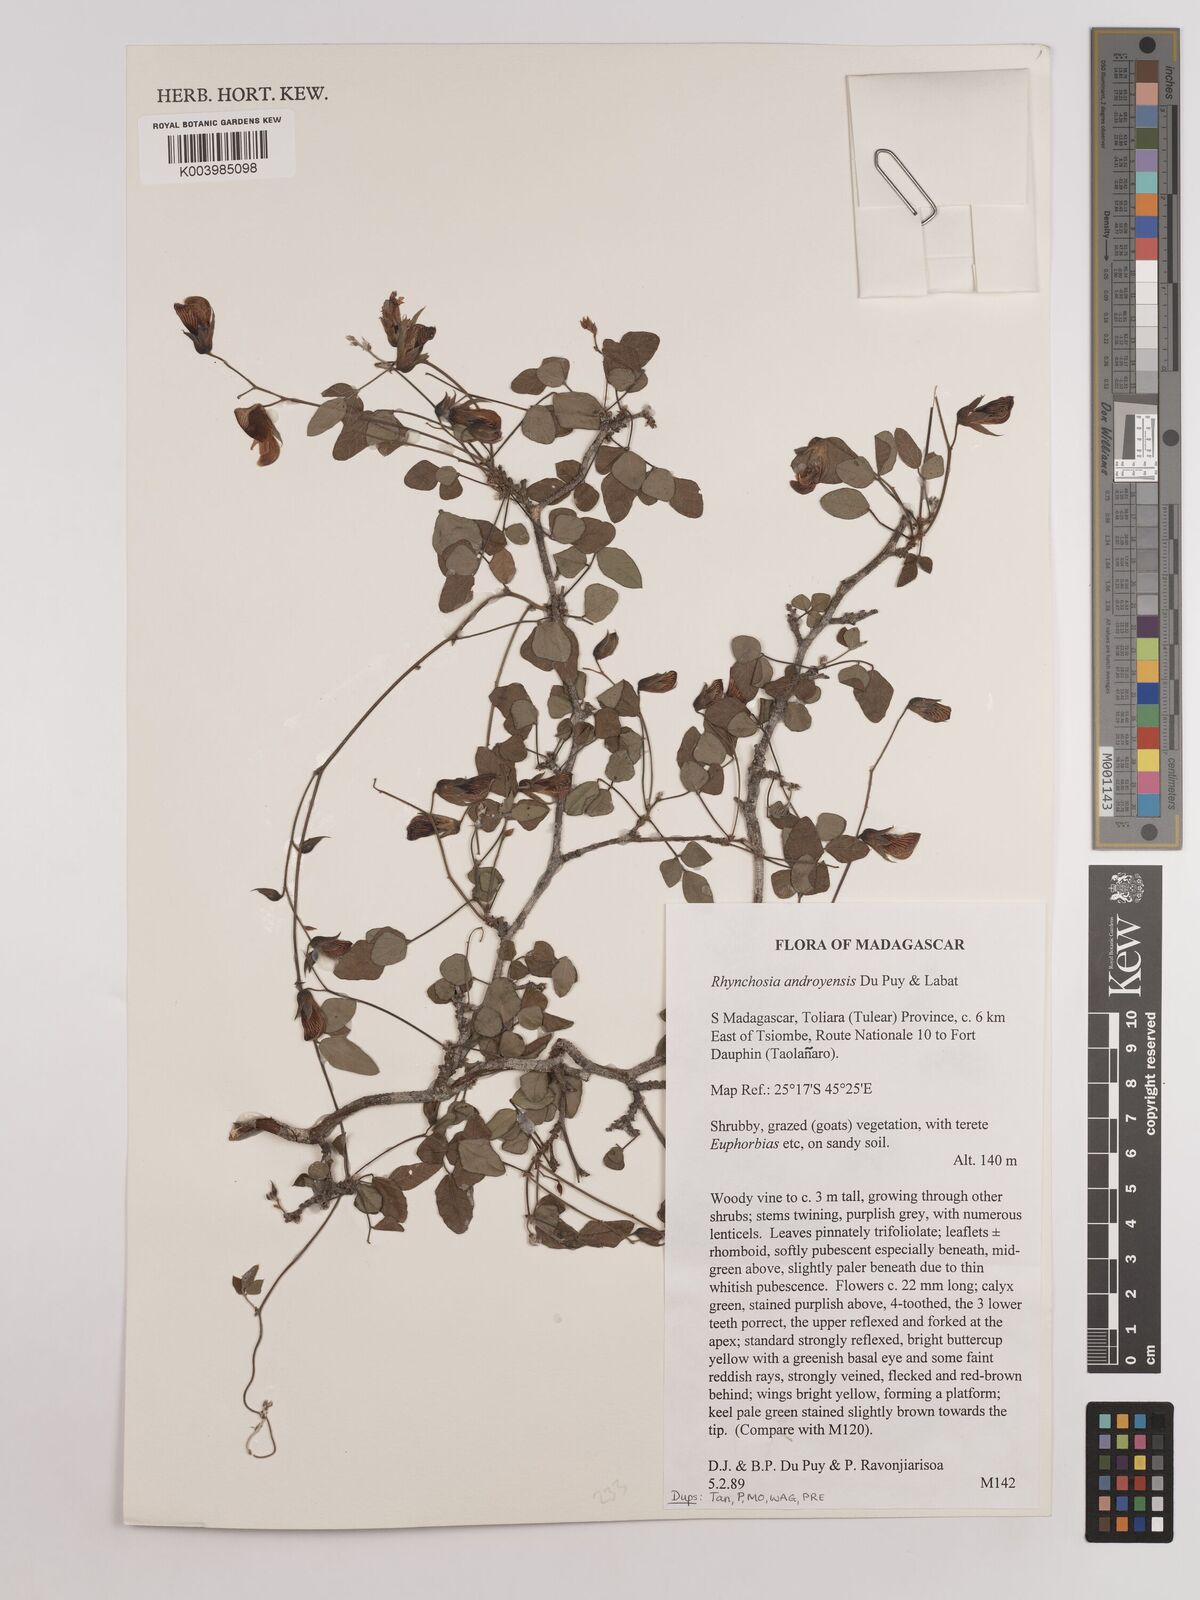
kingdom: Plantae
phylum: Tracheophyta
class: Magnoliopsida
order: Fabales
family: Fabaceae
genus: Rhynchosia
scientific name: Rhynchosia androyensis
